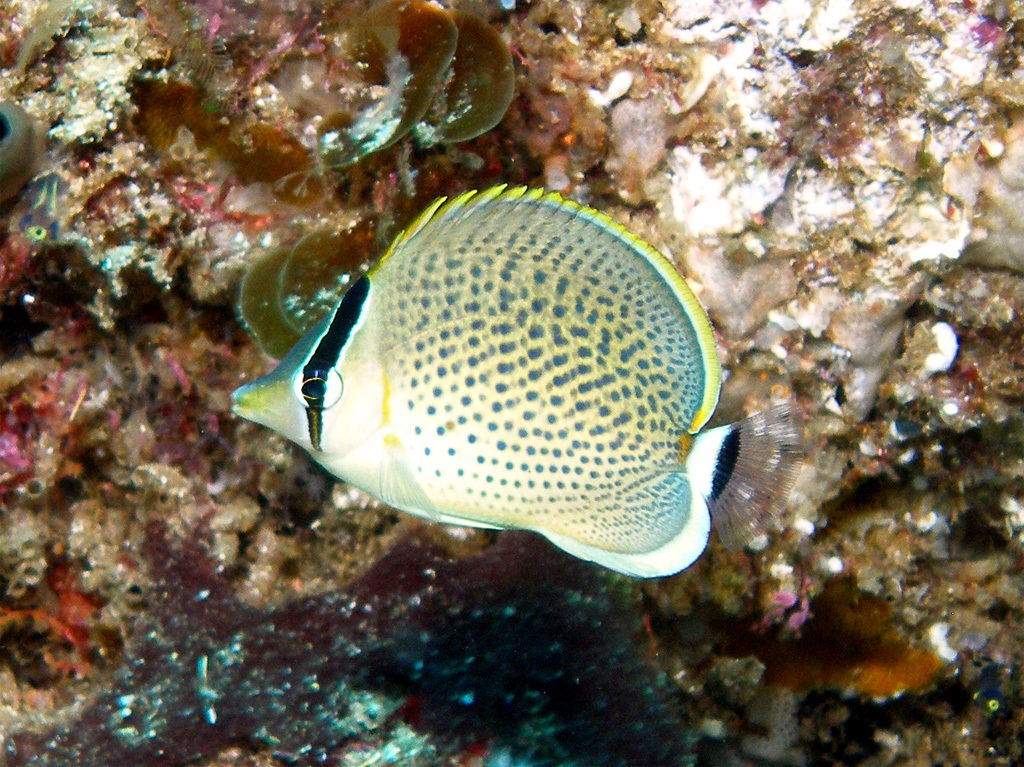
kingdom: Animalia
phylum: Chordata
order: Perciformes
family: Chaetodontidae
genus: Chaetodon
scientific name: Chaetodon guttatissimus
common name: Spotted butterflyfish
